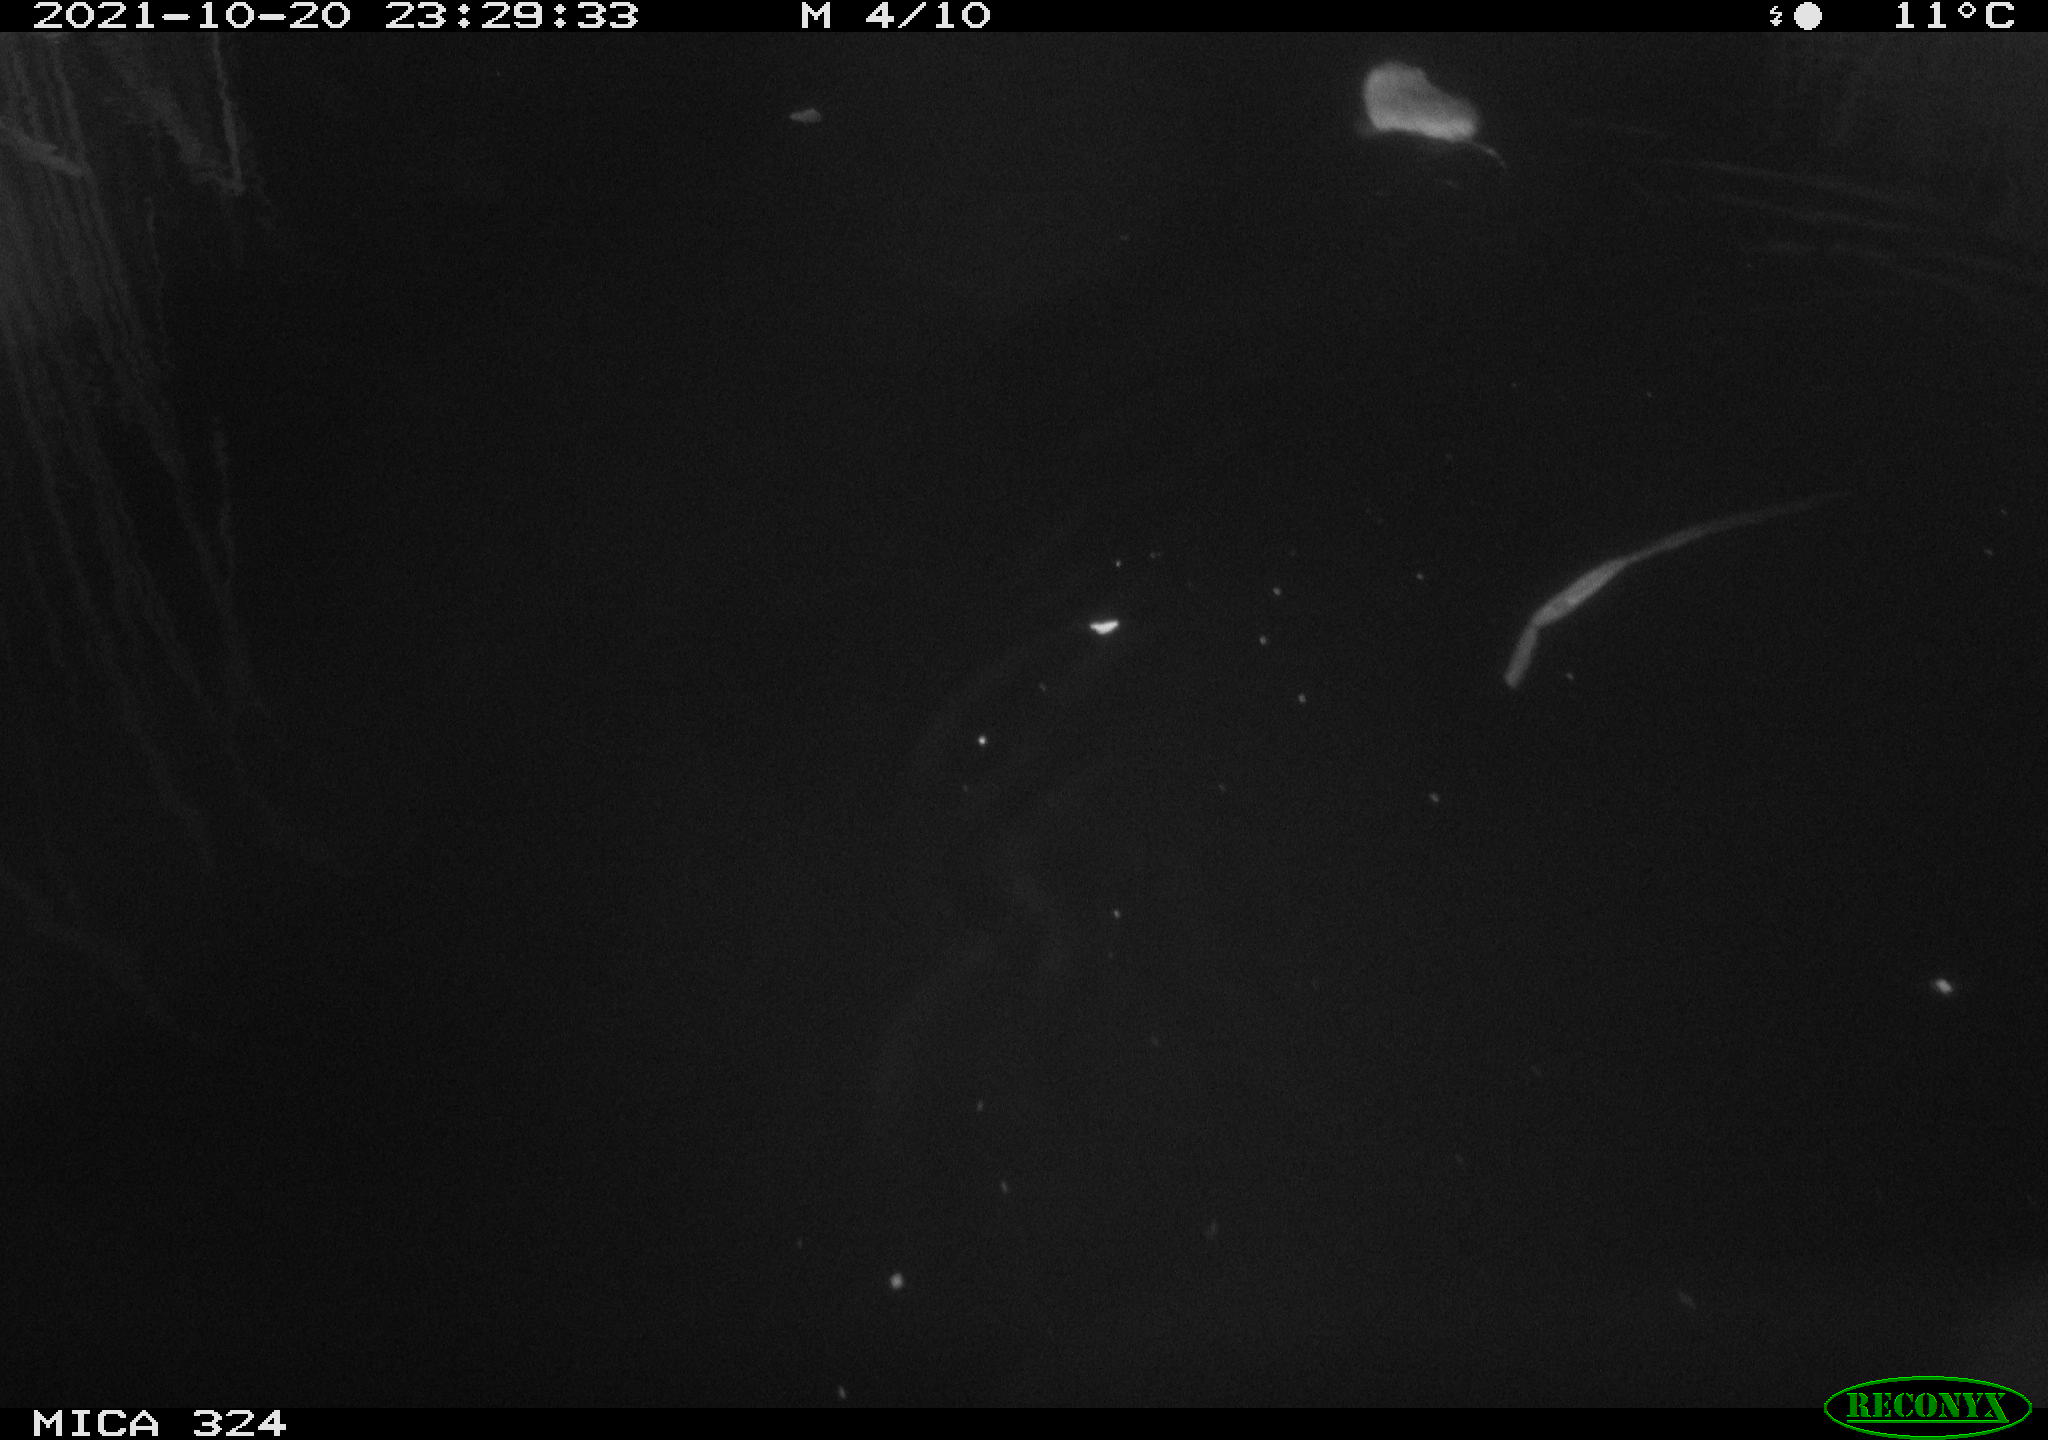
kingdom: Animalia
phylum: Chordata
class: Mammalia
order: Rodentia
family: Cricetidae
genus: Ondatra
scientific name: Ondatra zibethicus
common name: Muskrat
